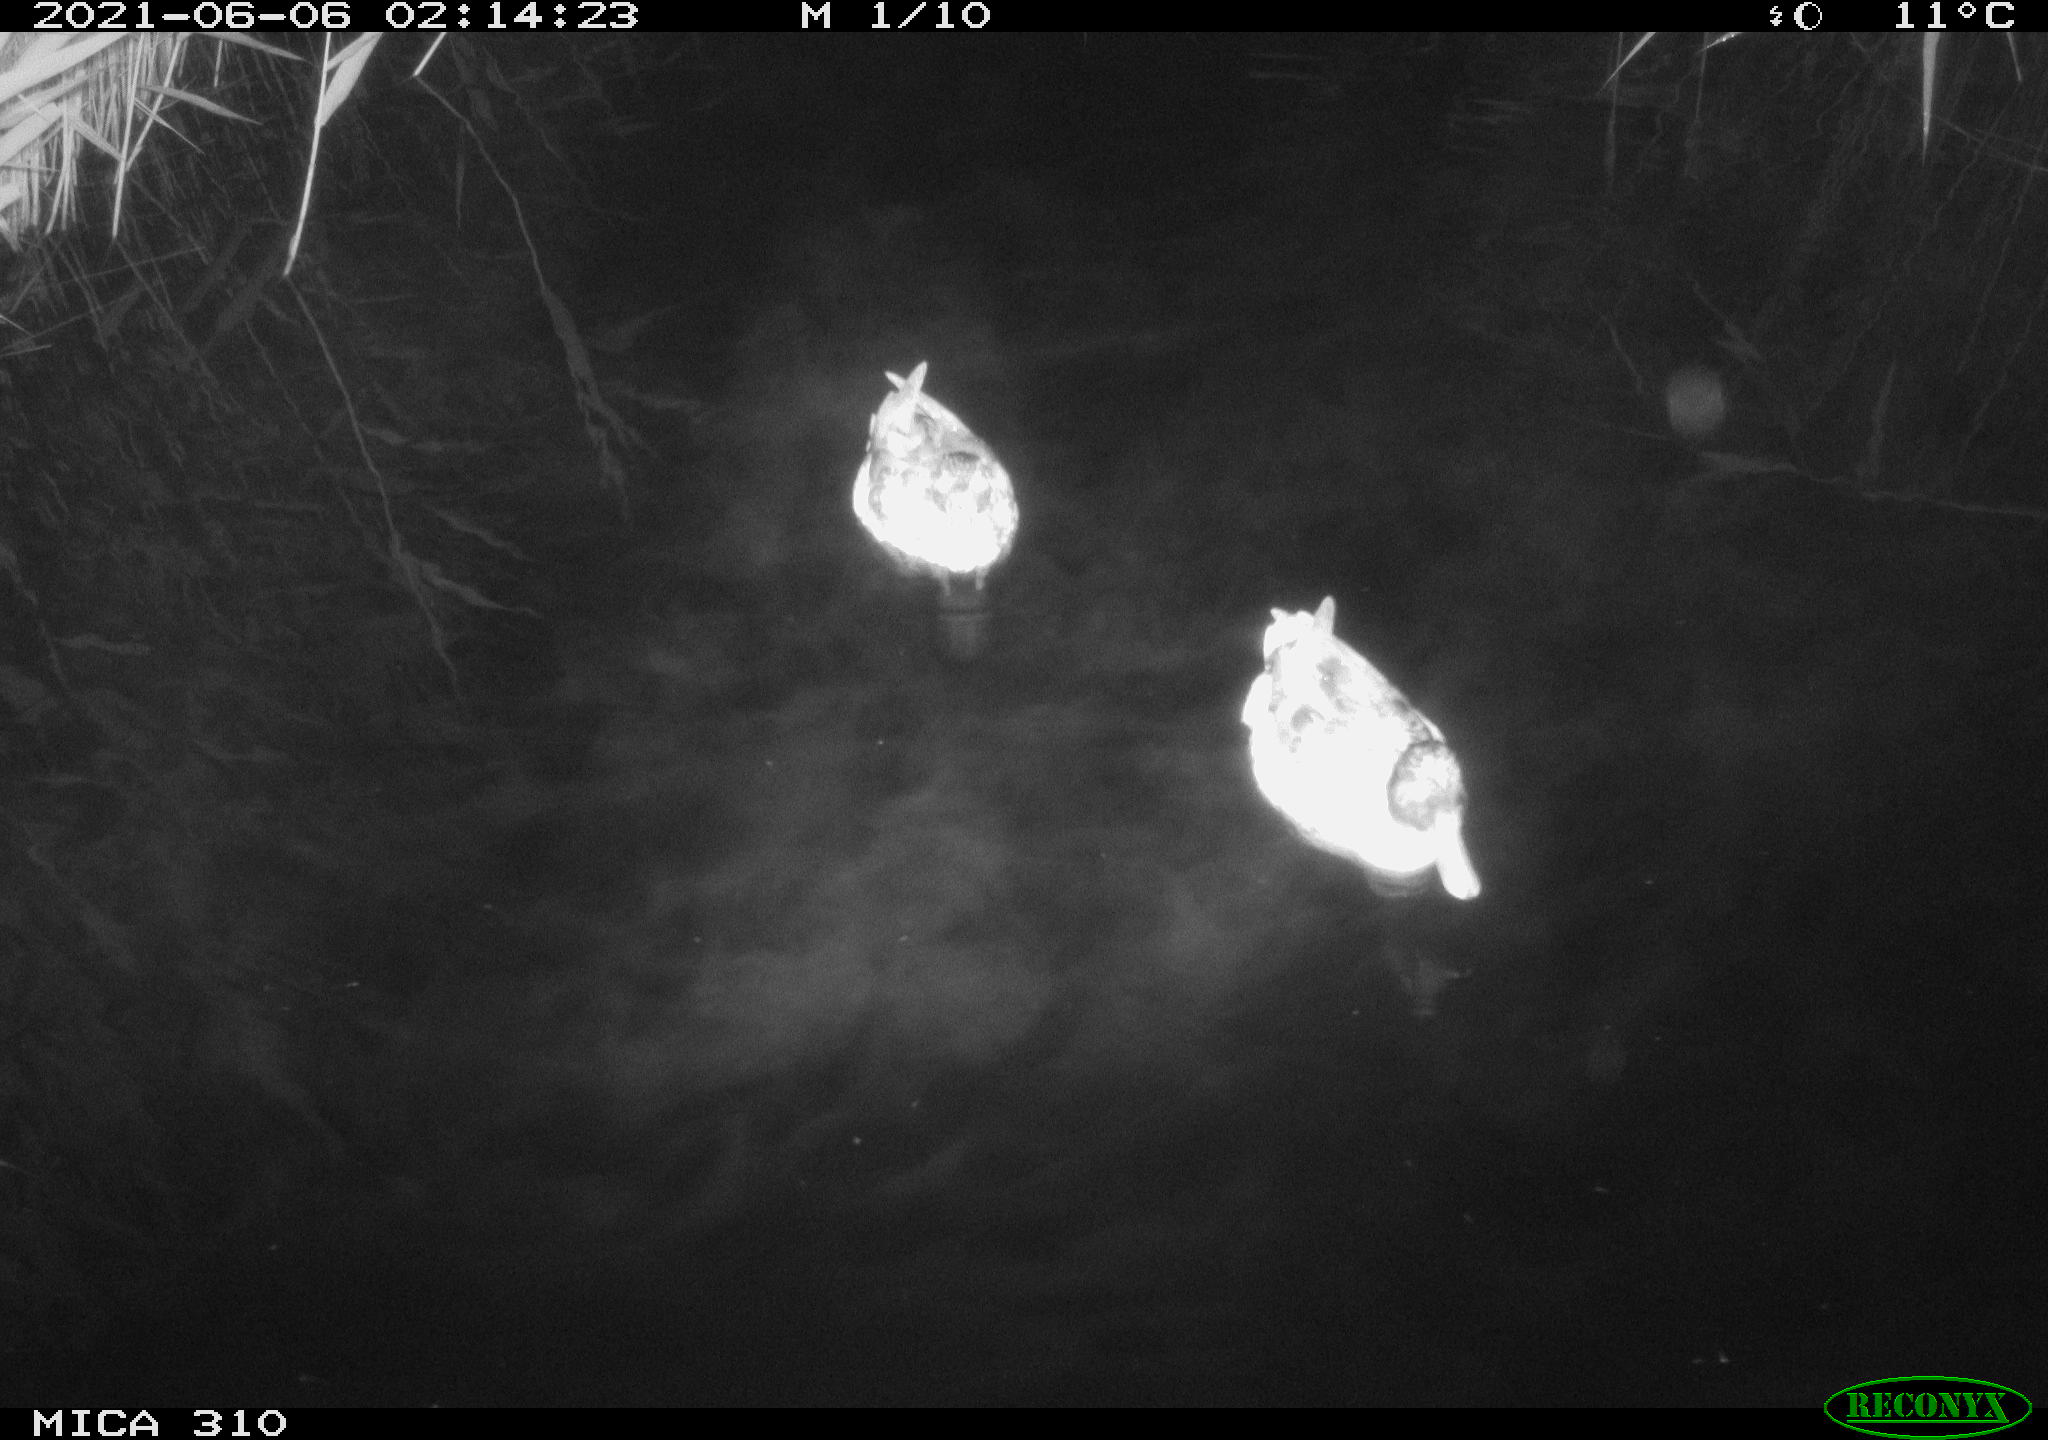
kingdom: Animalia
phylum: Chordata
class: Aves
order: Anseriformes
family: Anatidae
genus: Anas
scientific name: Anas
